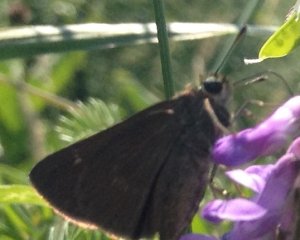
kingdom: Animalia
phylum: Arthropoda
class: Insecta
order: Lepidoptera
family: Hesperiidae
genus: Euphyes
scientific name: Euphyes vestris
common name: Dun Skipper
